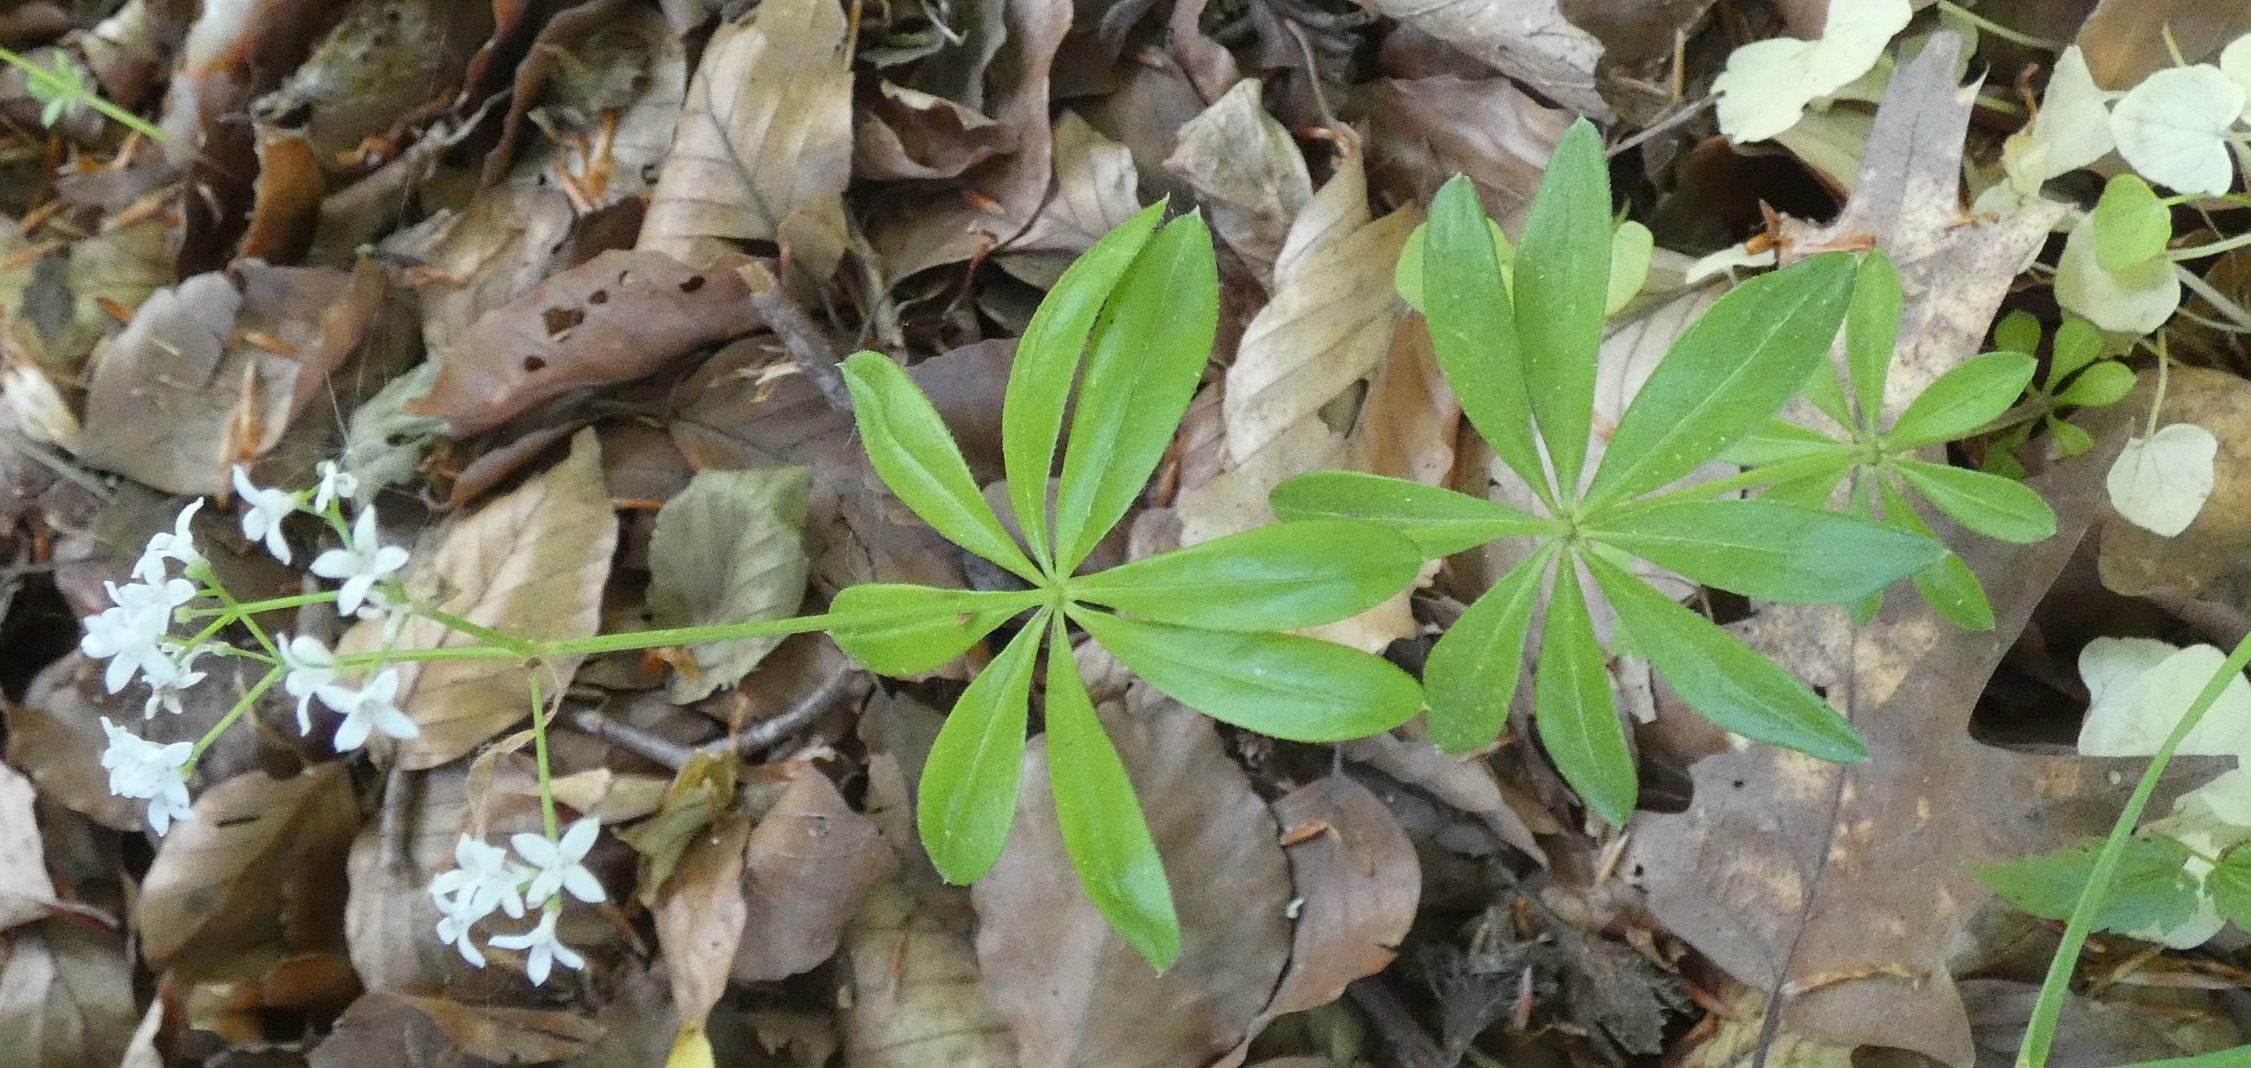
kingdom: Plantae
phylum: Tracheophyta
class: Magnoliopsida
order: Gentianales
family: Rubiaceae
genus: Galium
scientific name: Galium odoratum
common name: Skovmærke
